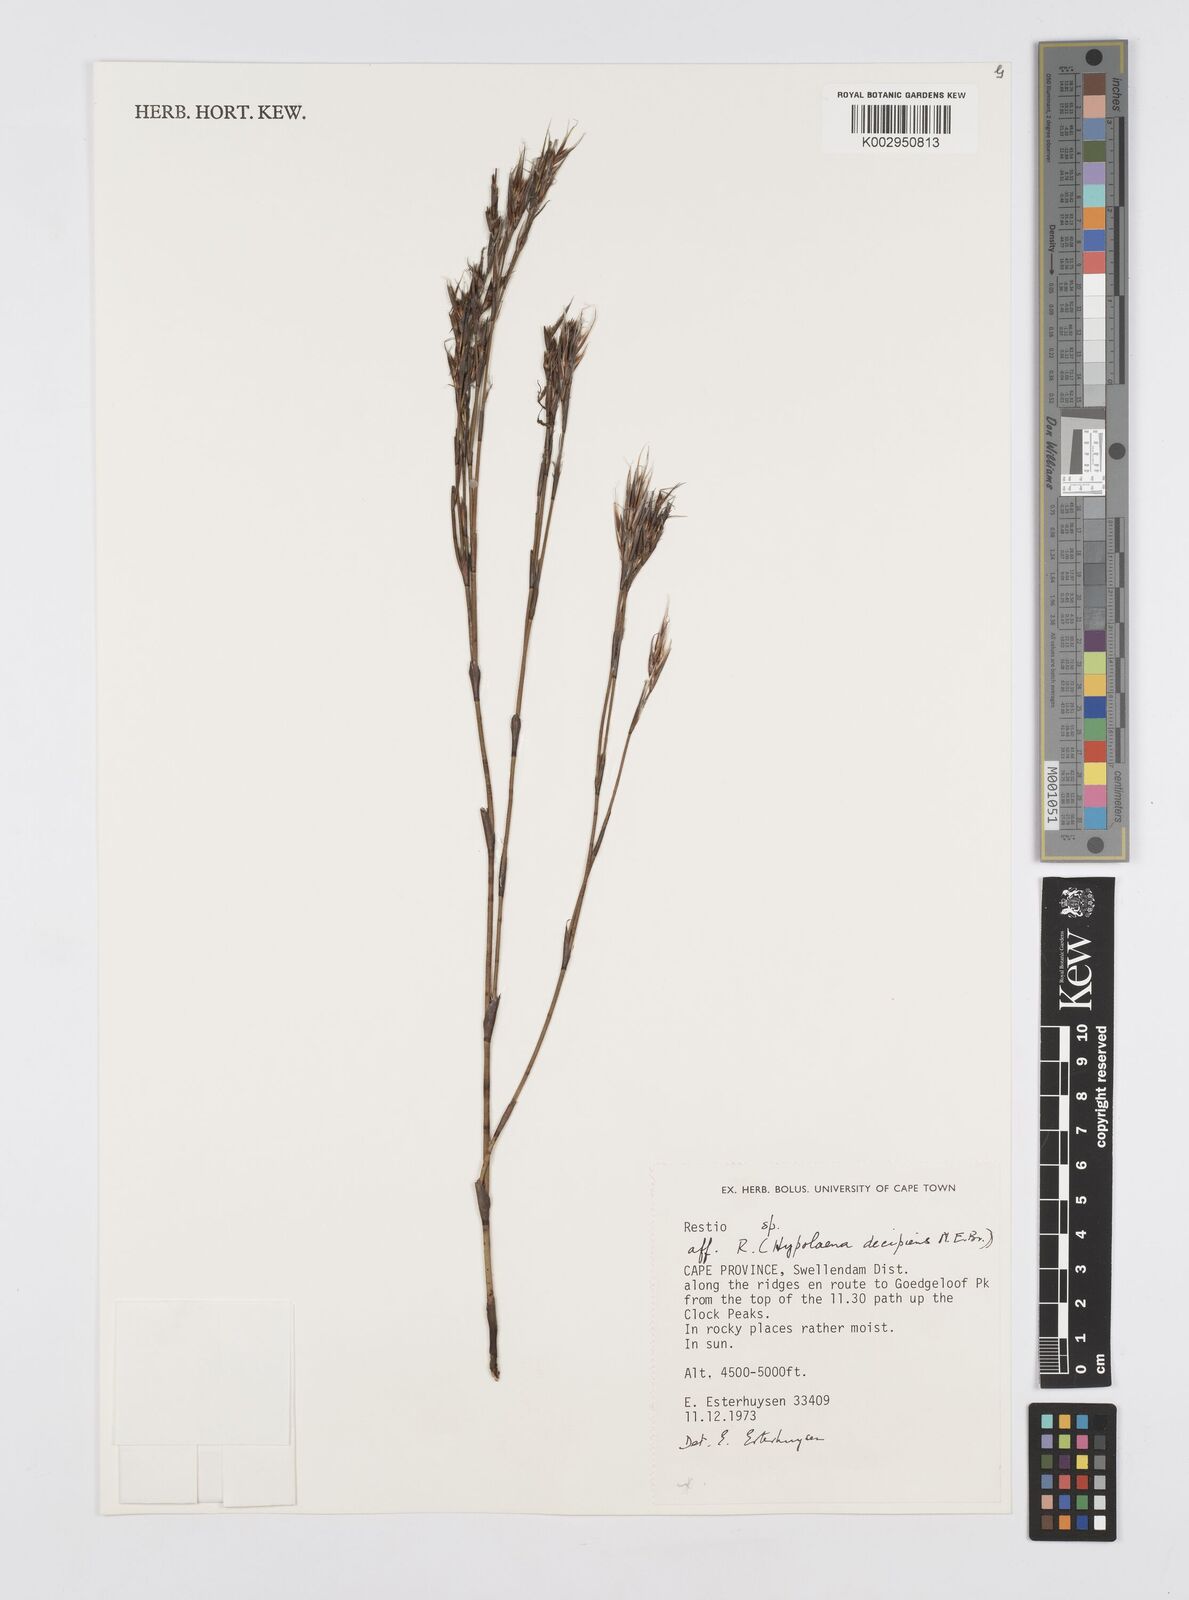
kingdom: Plantae
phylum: Tracheophyta
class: Liliopsida
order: Poales
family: Restionaceae
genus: Restio
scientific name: Restio decipiens
